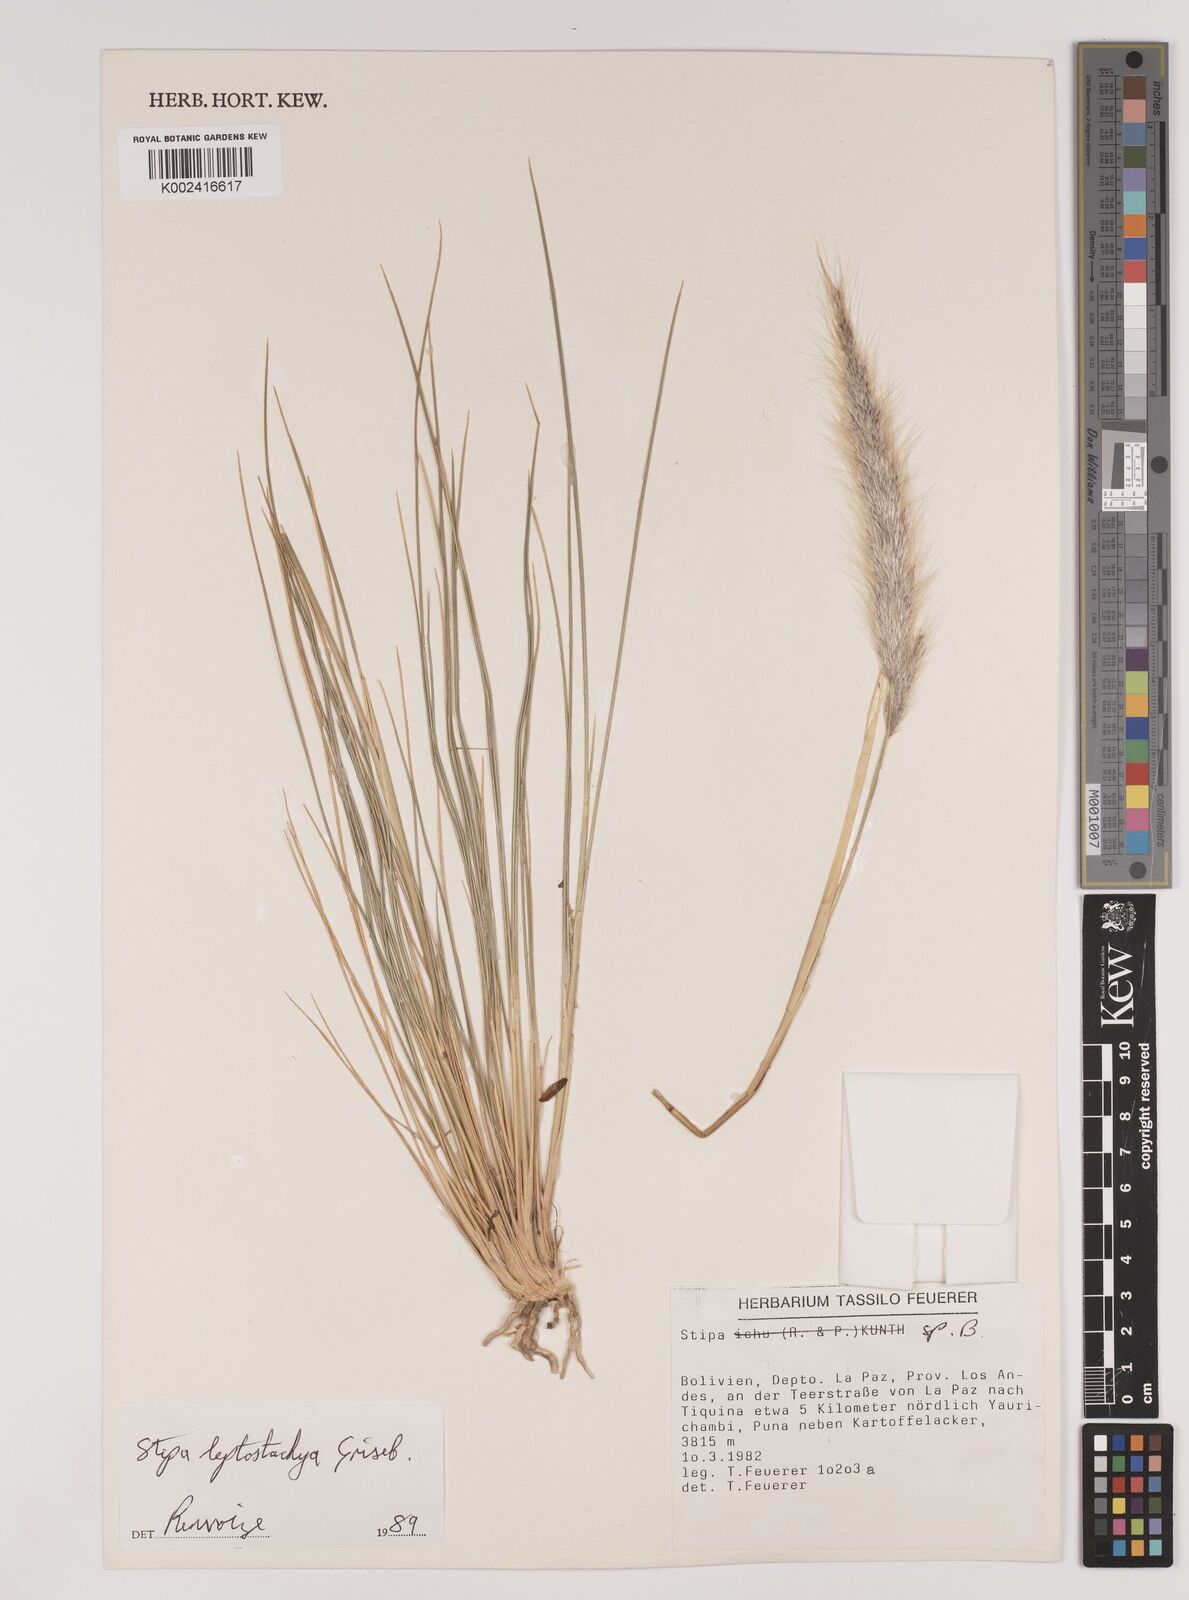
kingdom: Plantae
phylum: Tracheophyta
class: Liliopsida
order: Poales
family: Poaceae
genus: Jarava
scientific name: Jarava leptostachya
